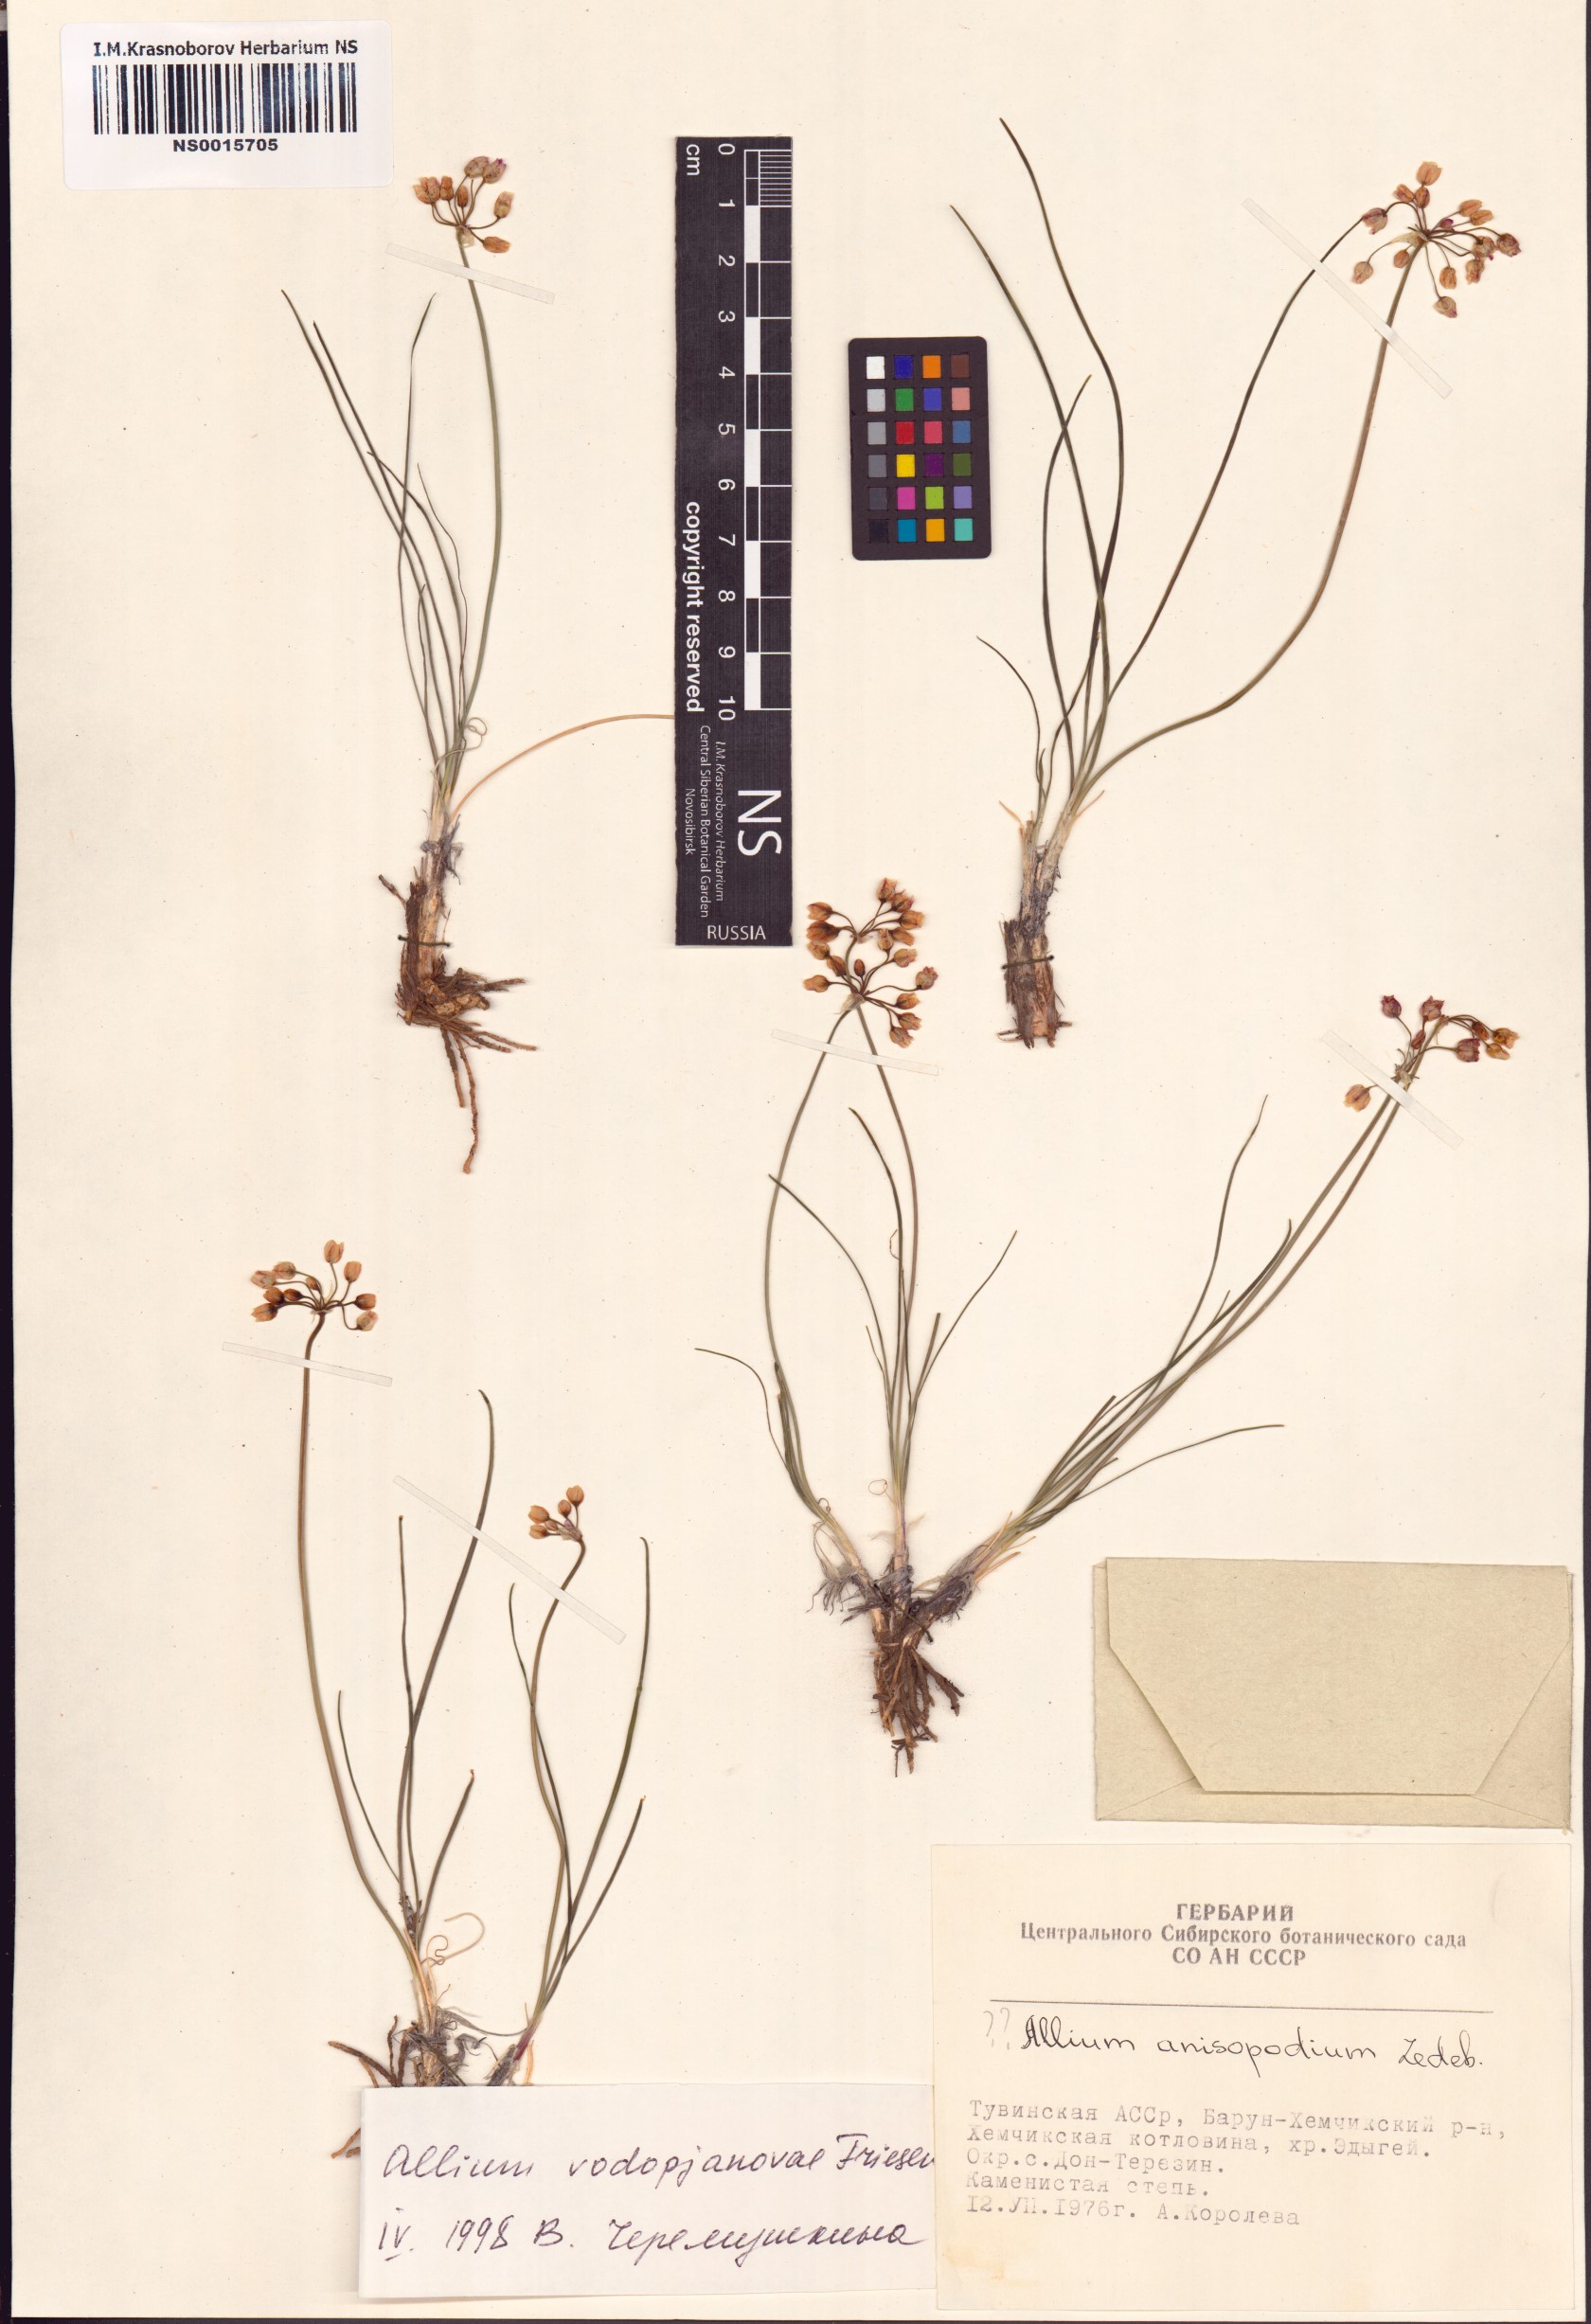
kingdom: Plantae
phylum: Tracheophyta
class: Liliopsida
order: Asparagales
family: Amaryllidaceae
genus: Allium
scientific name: Allium vodopjanovae
